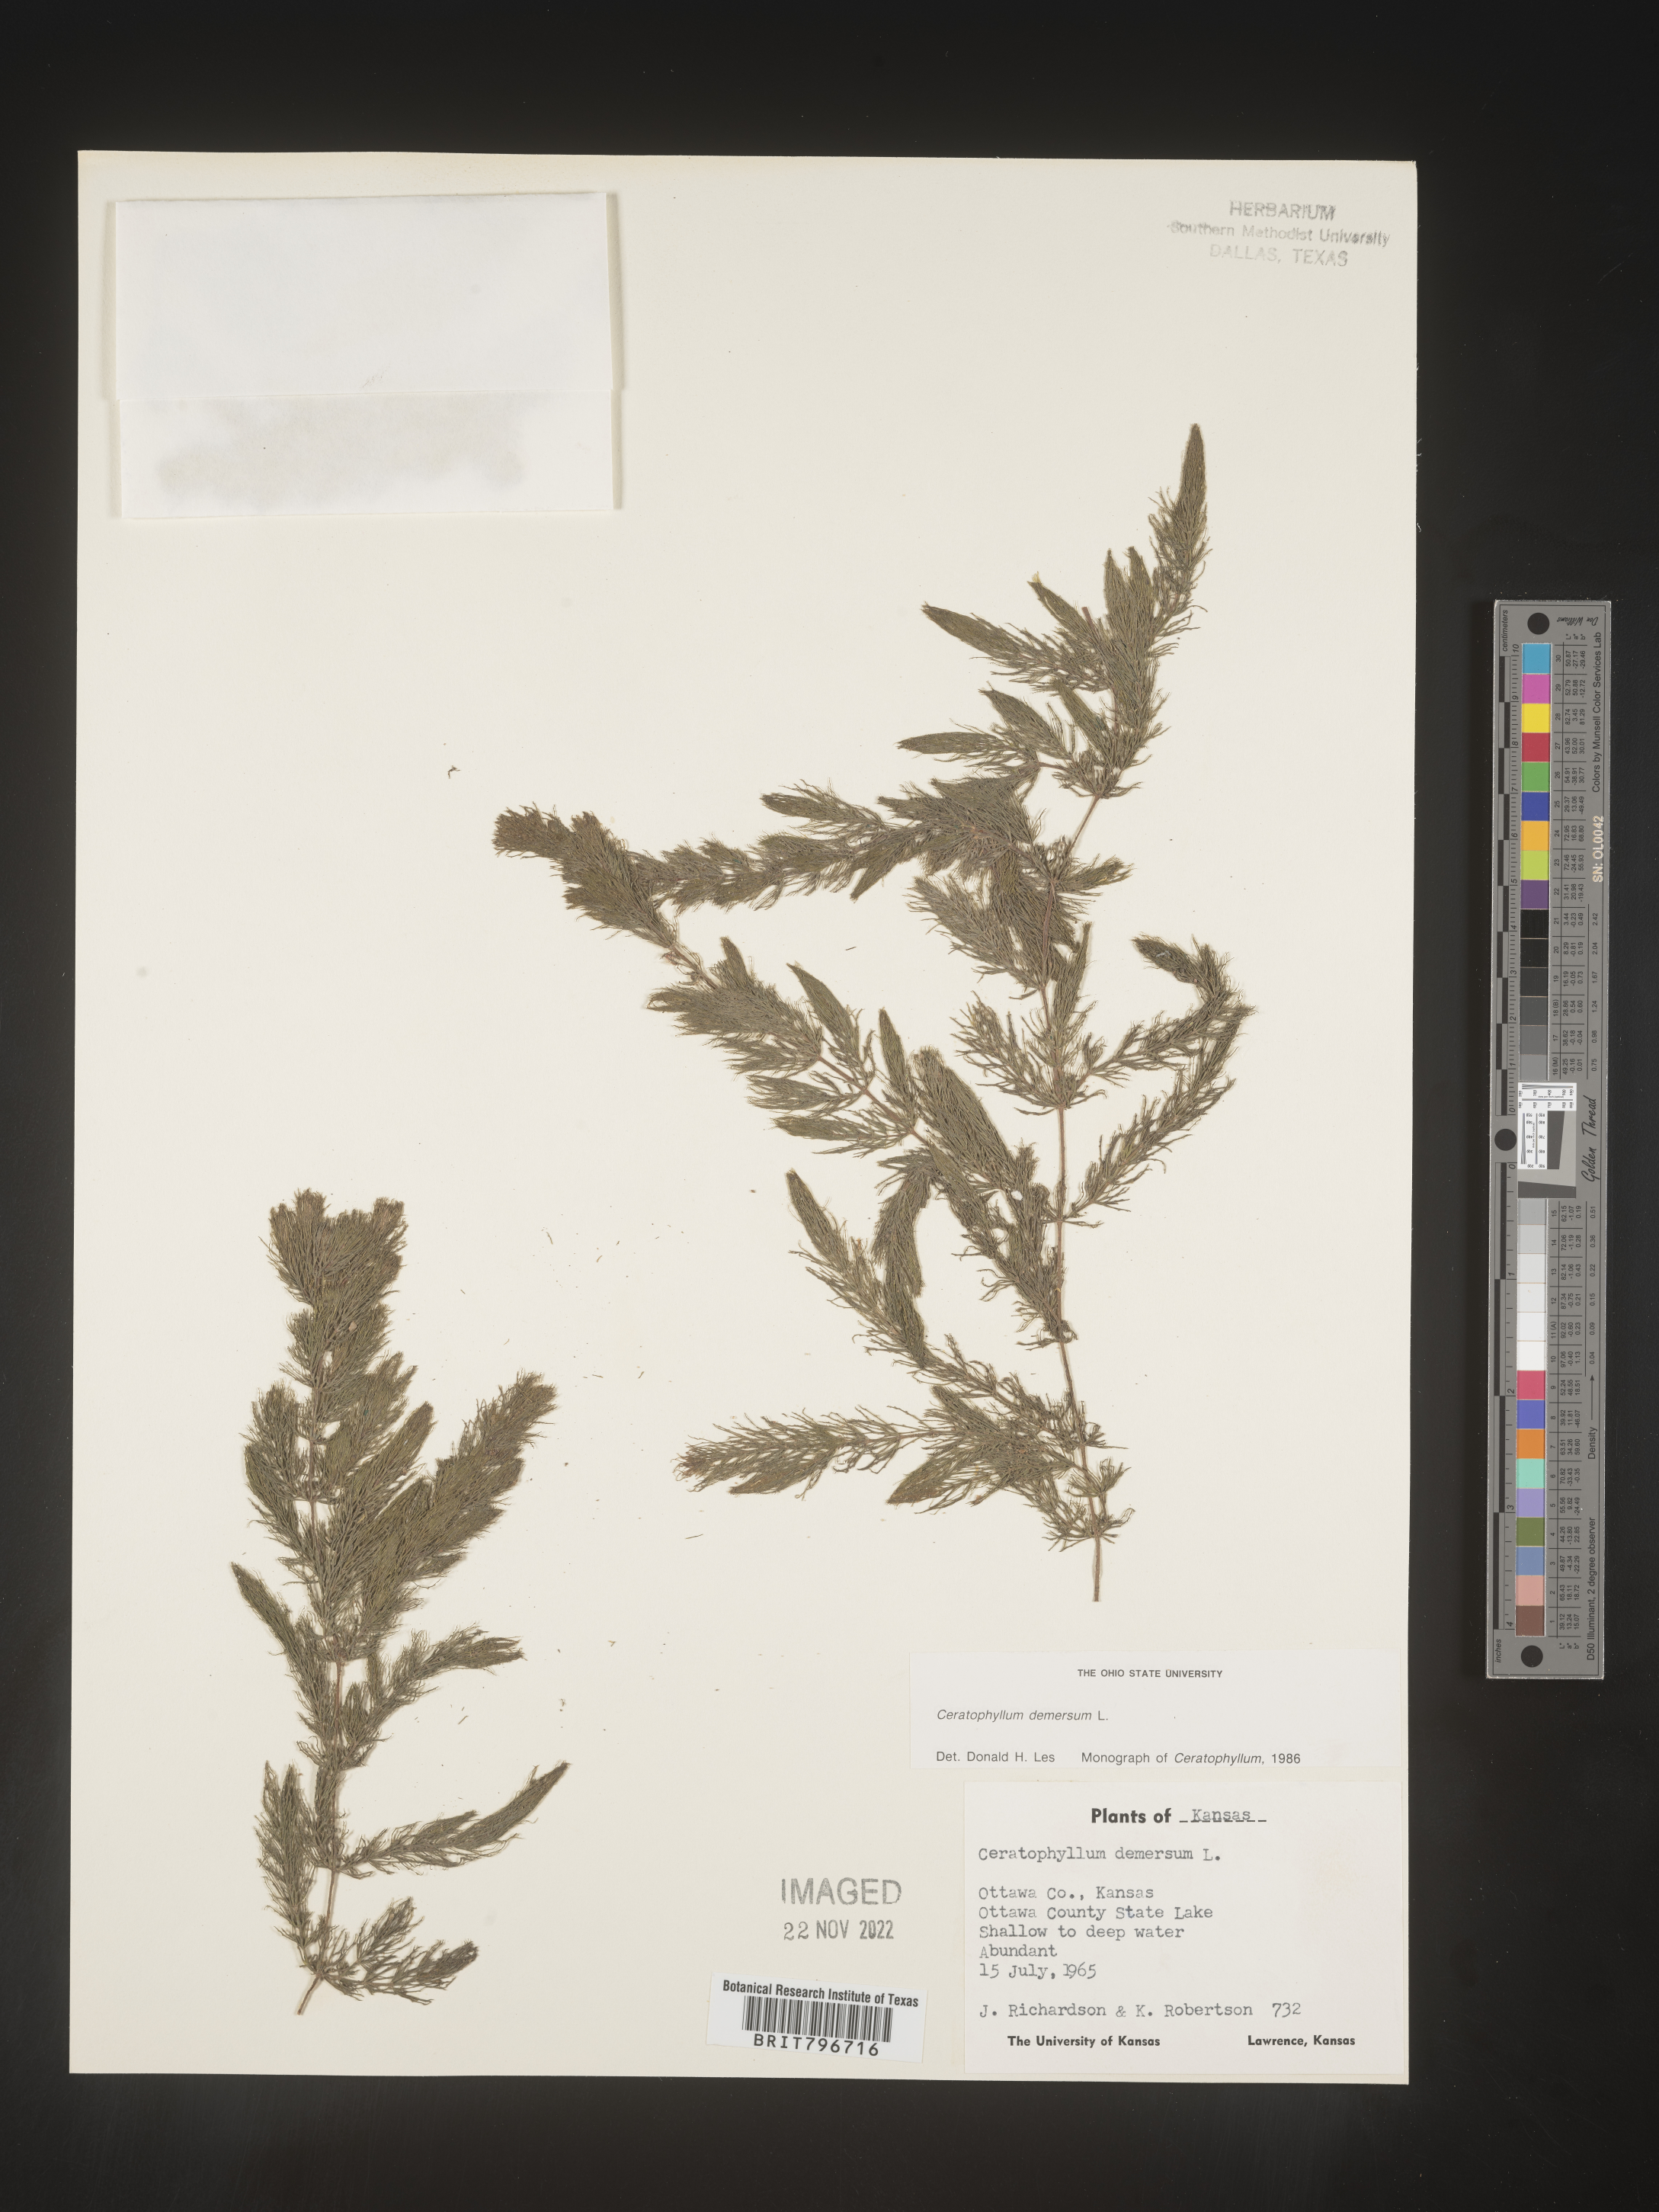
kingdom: Plantae
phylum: Tracheophyta
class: Magnoliopsida
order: Ceratophyllales
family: Ceratophyllaceae
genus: Ceratophyllum
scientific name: Ceratophyllum demersum
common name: Rigid hornwort
